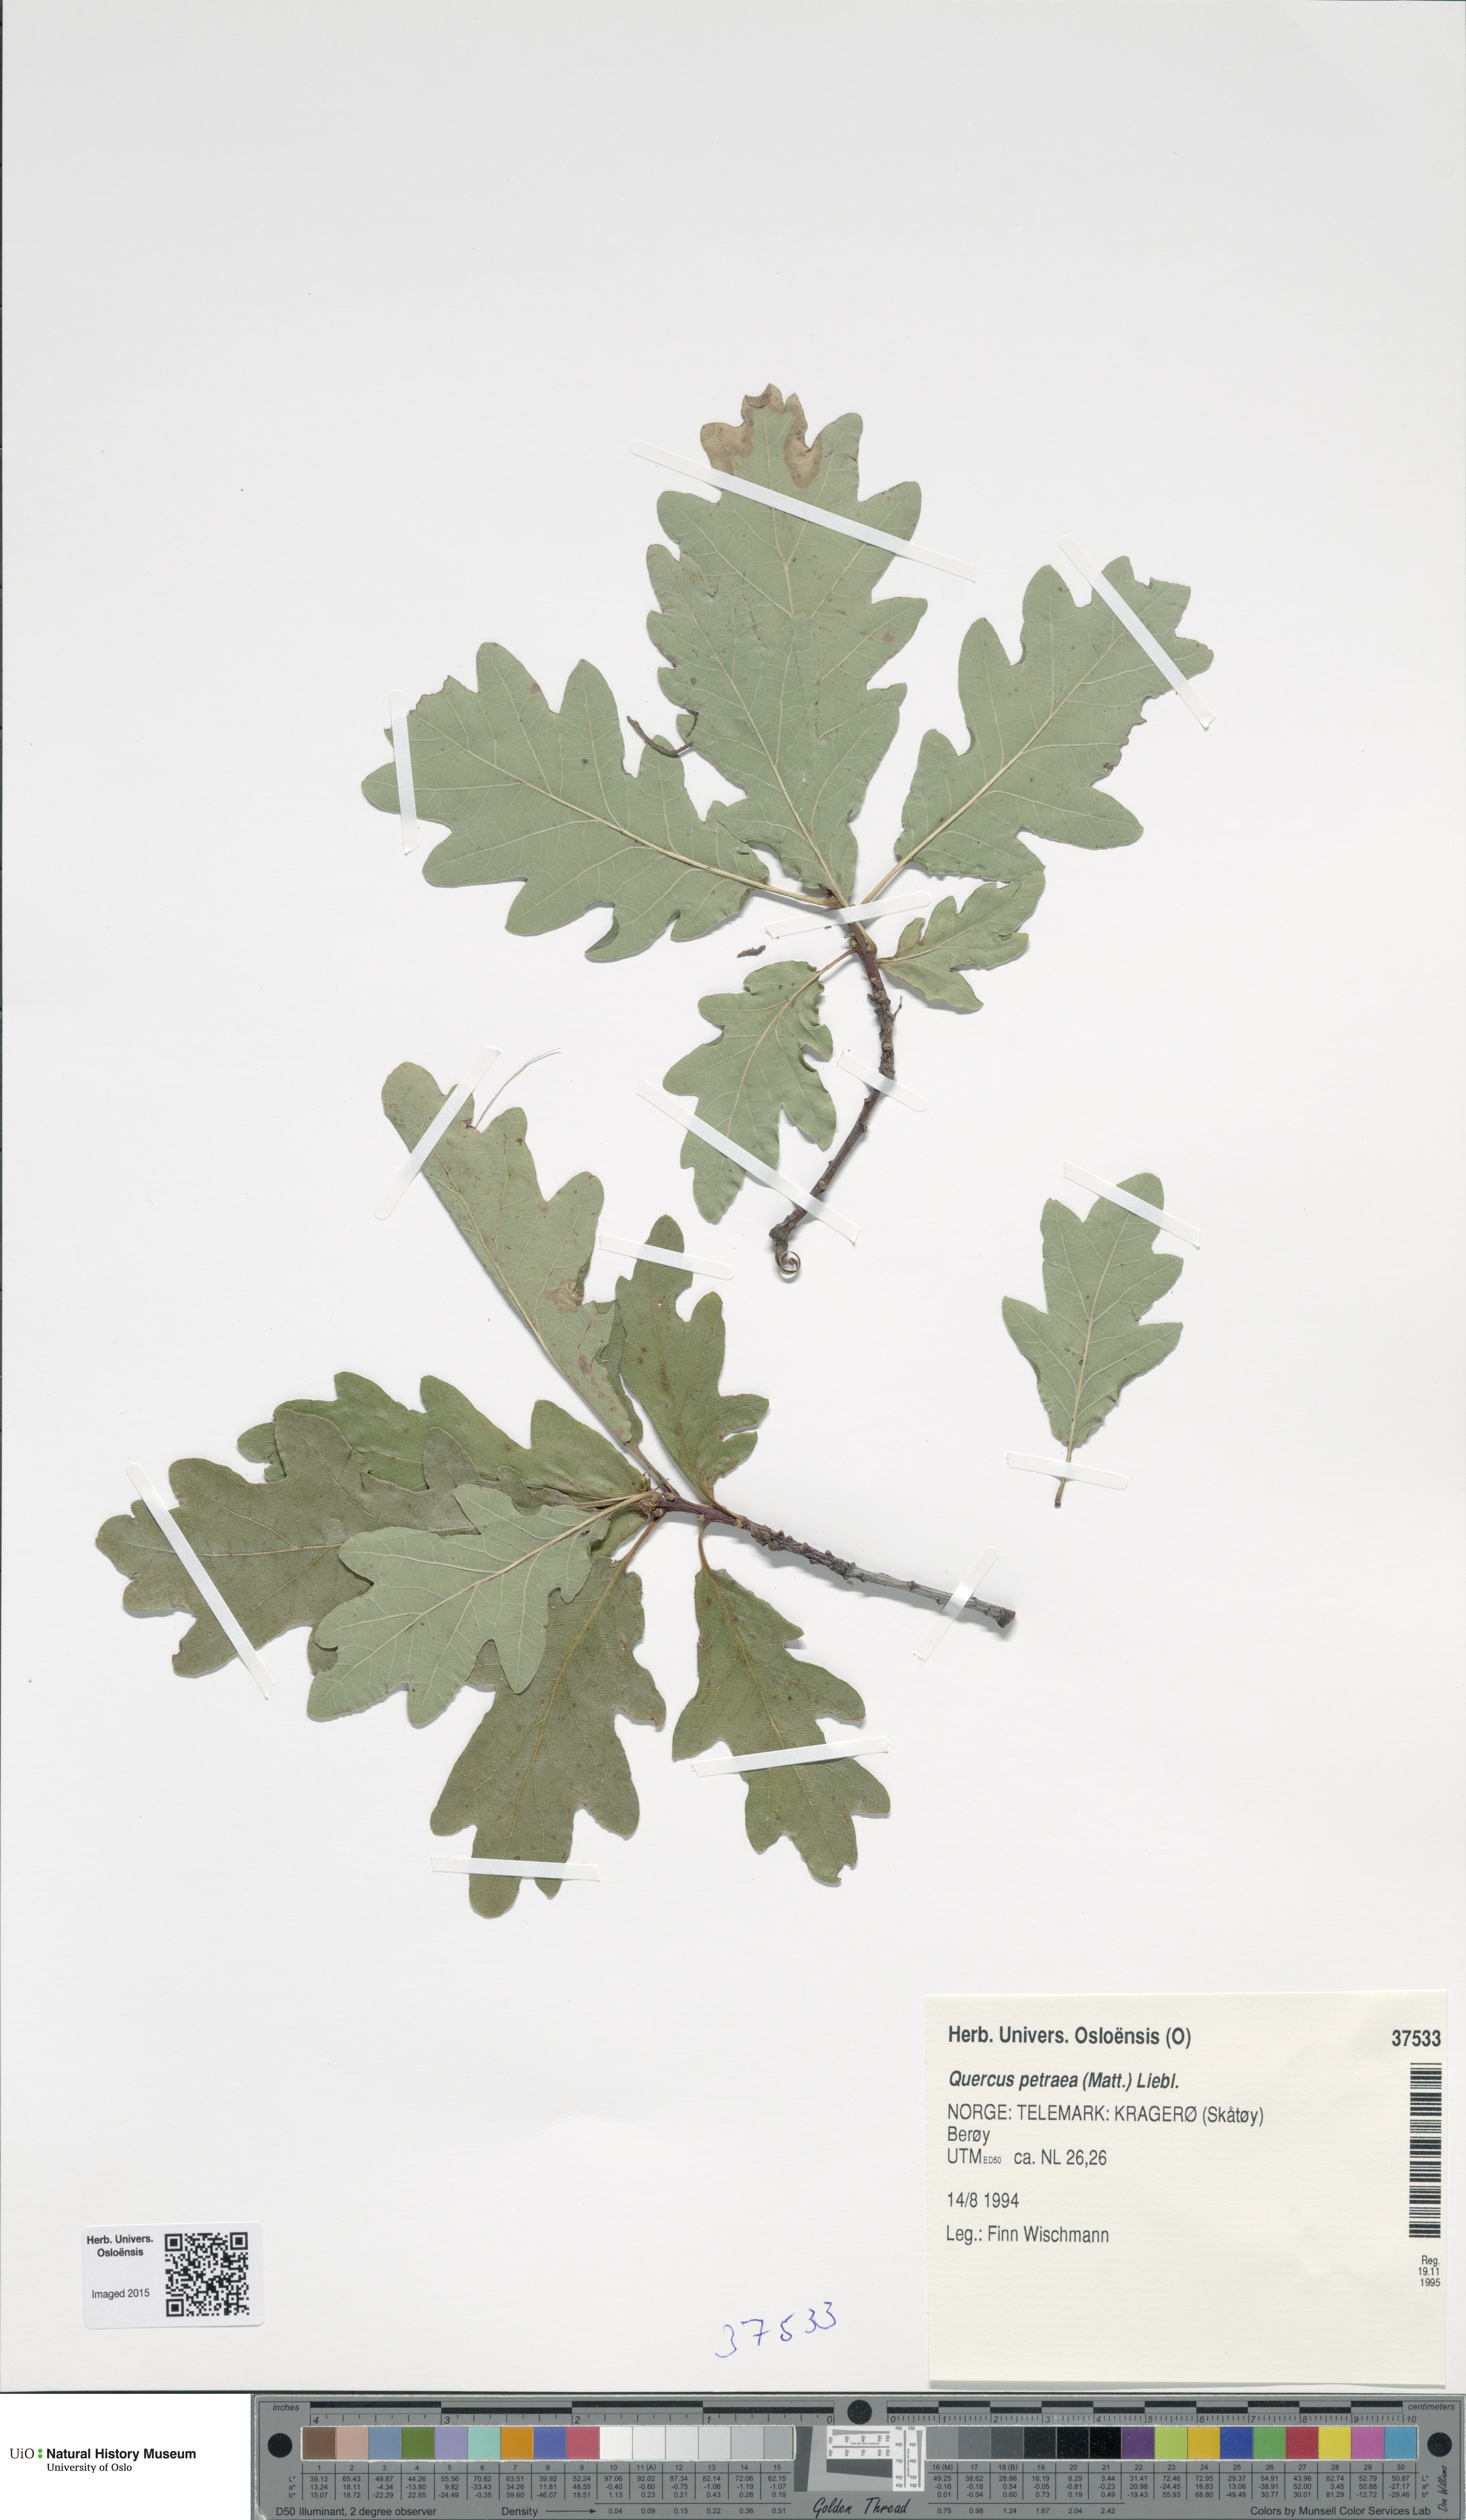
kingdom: Plantae
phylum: Tracheophyta
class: Magnoliopsida
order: Fagales
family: Fagaceae
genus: Quercus
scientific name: Quercus petraea
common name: Sessile oak
